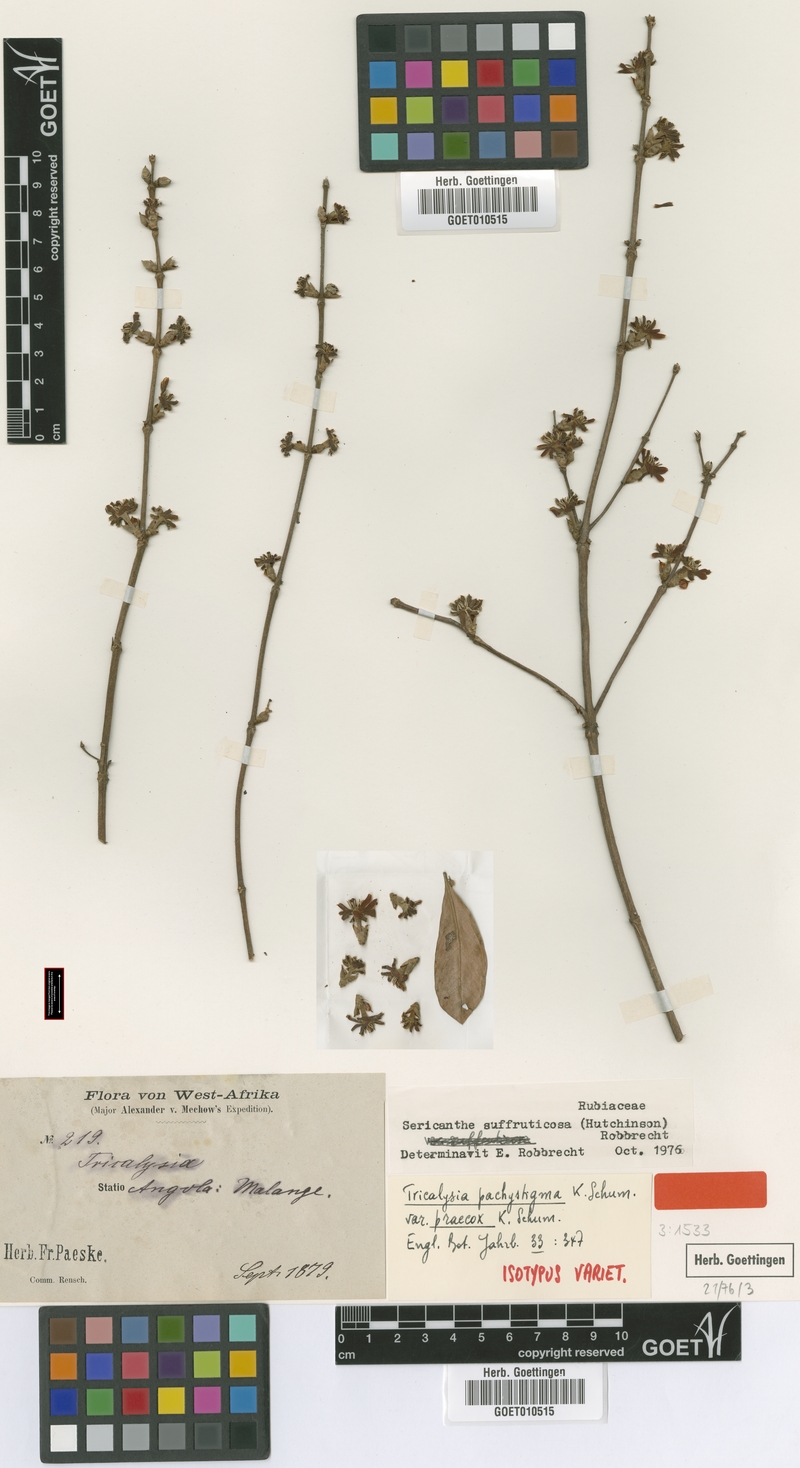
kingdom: Plantae
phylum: Tracheophyta
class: Magnoliopsida
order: Gentianales
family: Rubiaceae
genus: Sericanthe
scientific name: Sericanthe suffruticosa
